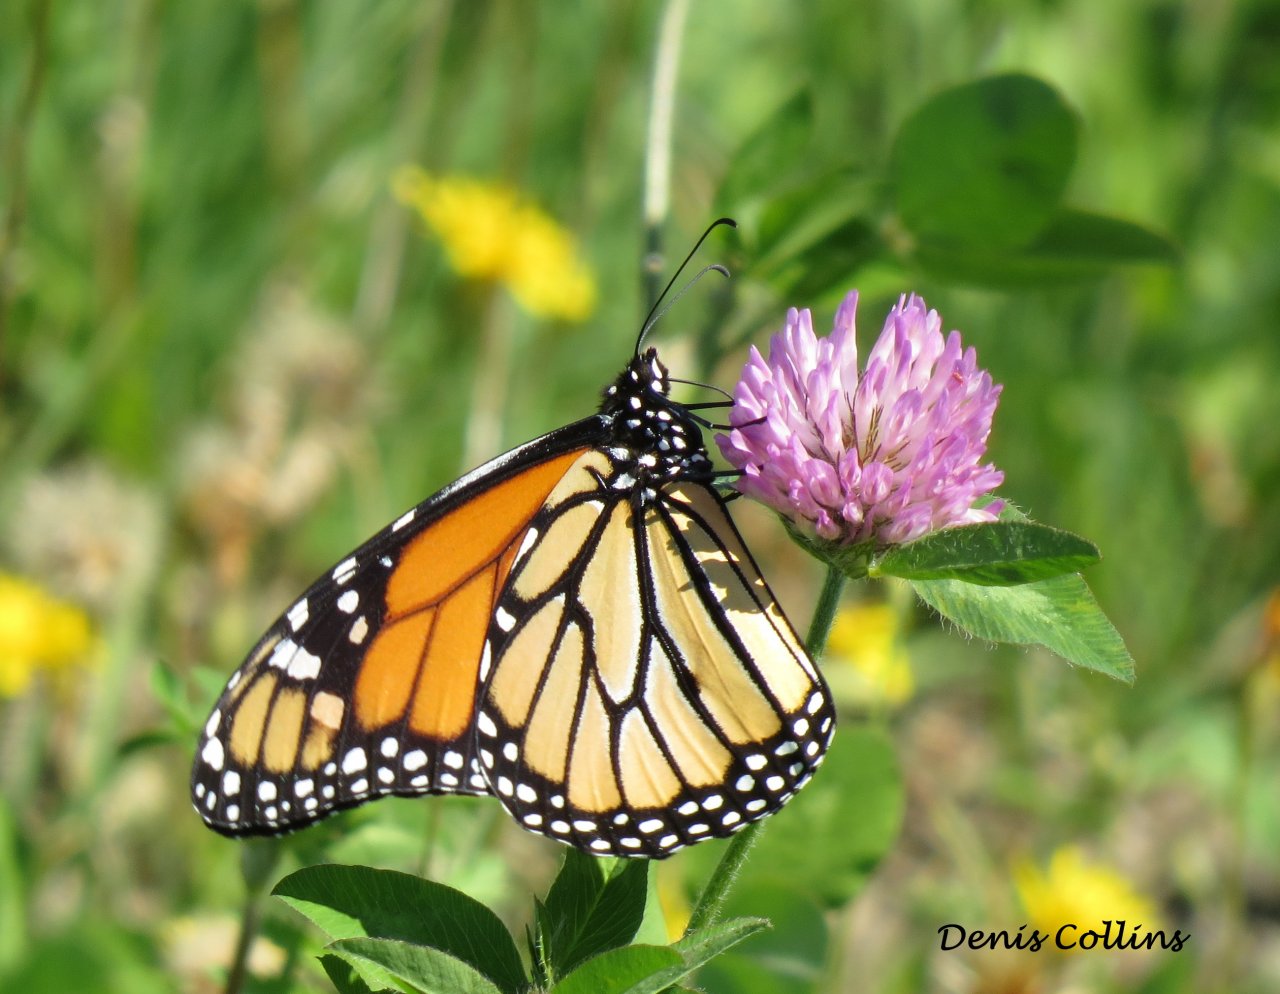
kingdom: Animalia
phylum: Arthropoda
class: Insecta
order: Lepidoptera
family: Nymphalidae
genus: Danaus
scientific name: Danaus plexippus
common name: Monarch
